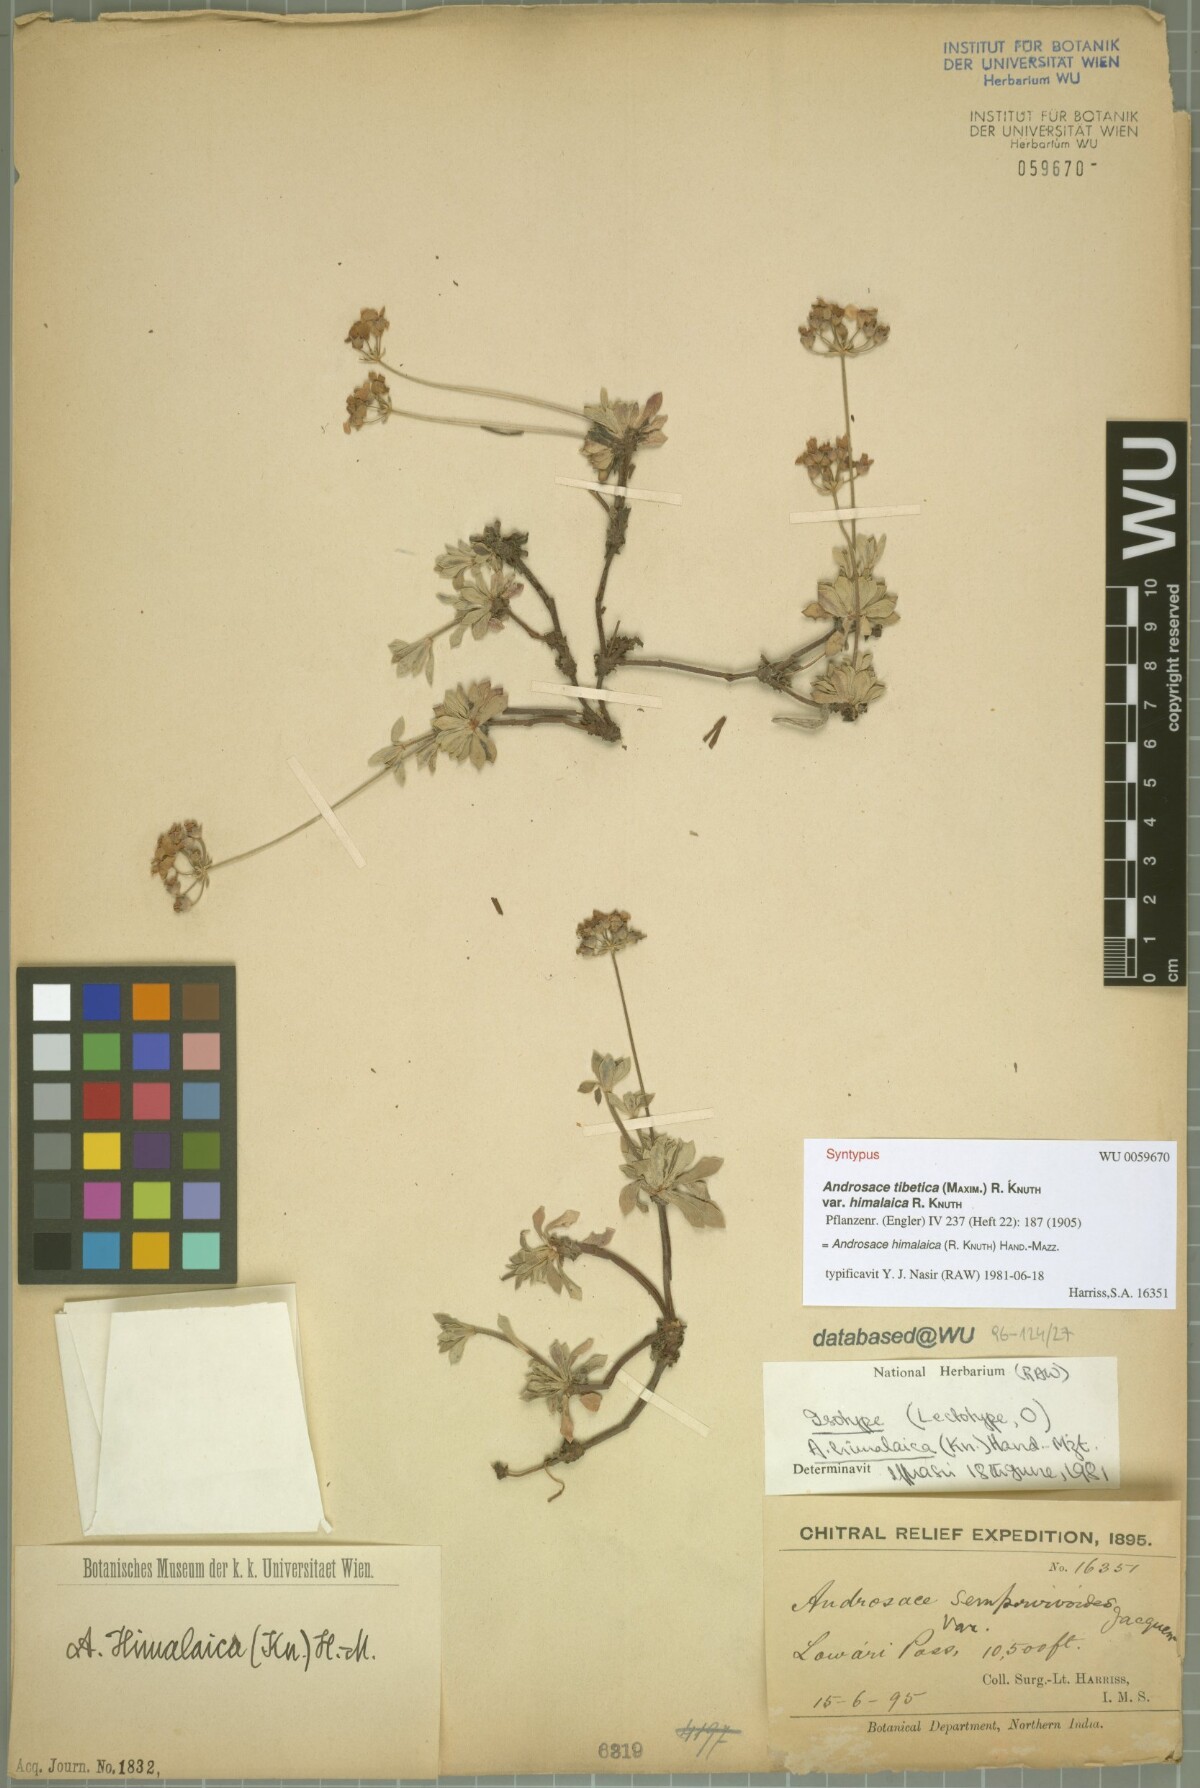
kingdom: Plantae
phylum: Tracheophyta
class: Magnoliopsida
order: Ericales
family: Primulaceae
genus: Androsace
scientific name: Androsace tibetica
